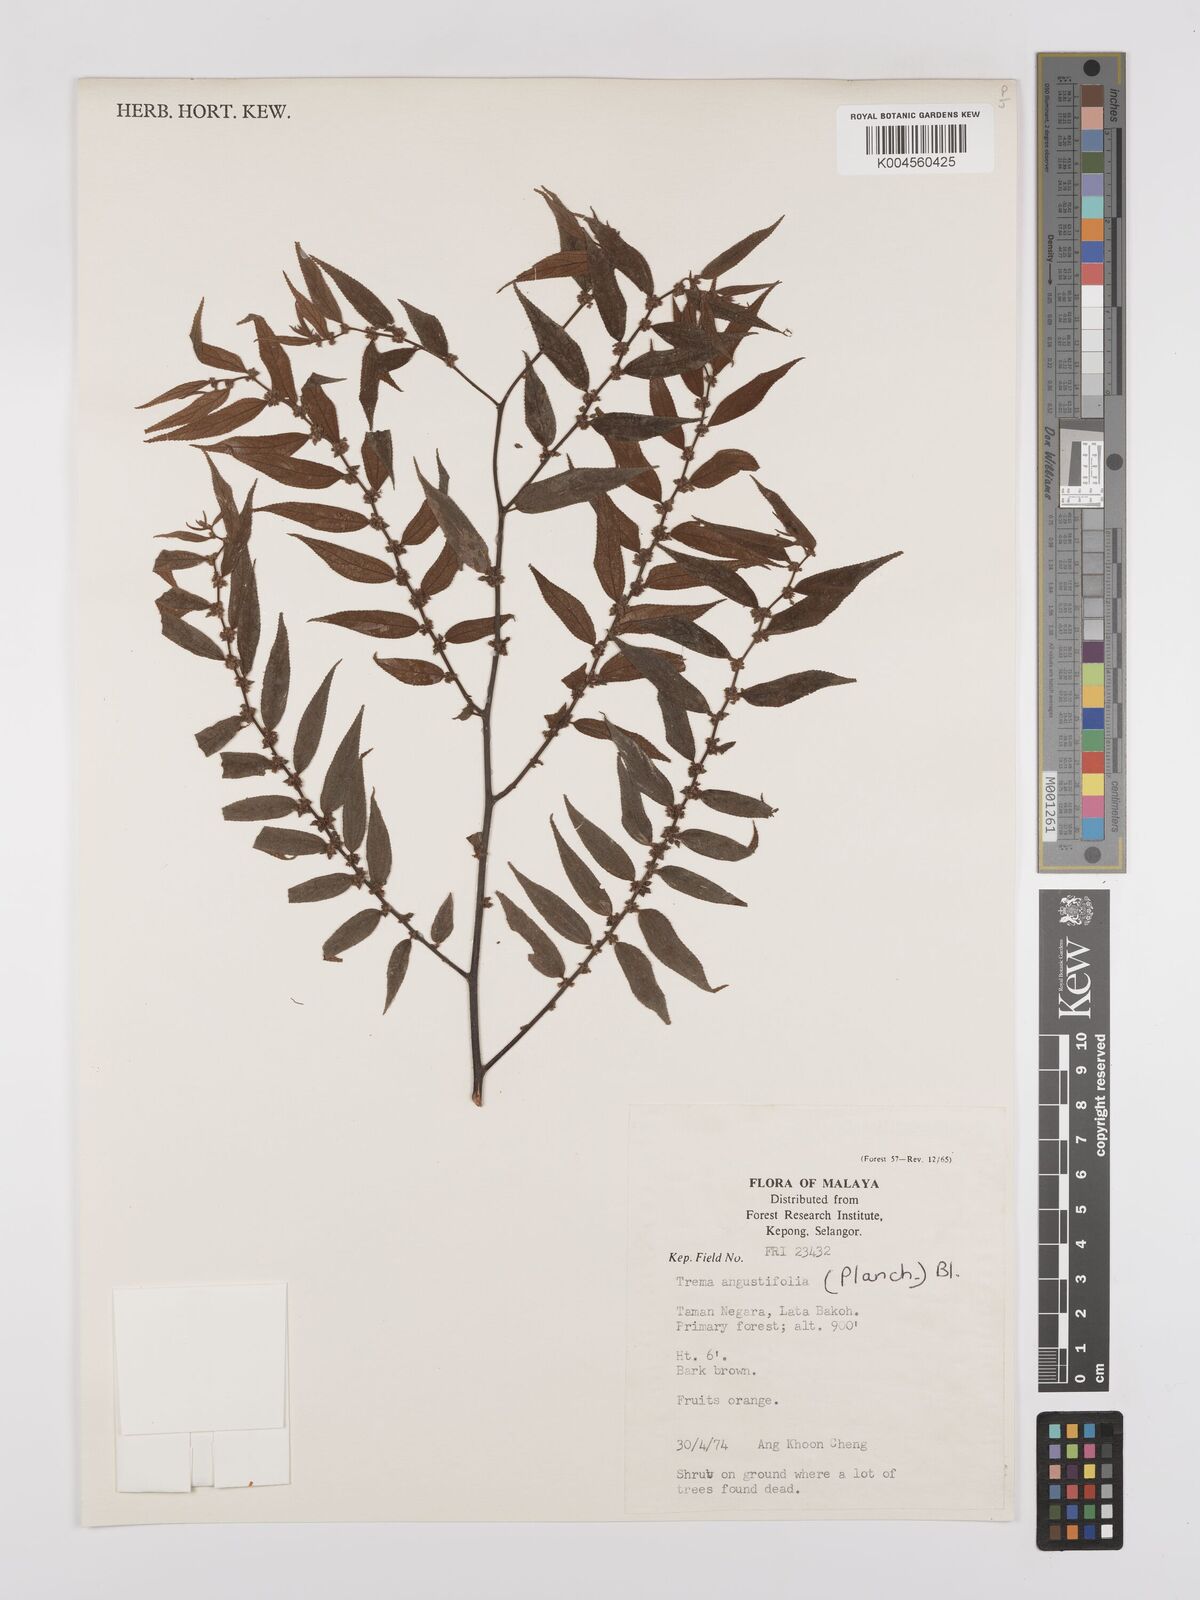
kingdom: Plantae
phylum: Tracheophyta
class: Magnoliopsida
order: Rosales
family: Cannabaceae
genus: Trema
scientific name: Trema angustifolium
